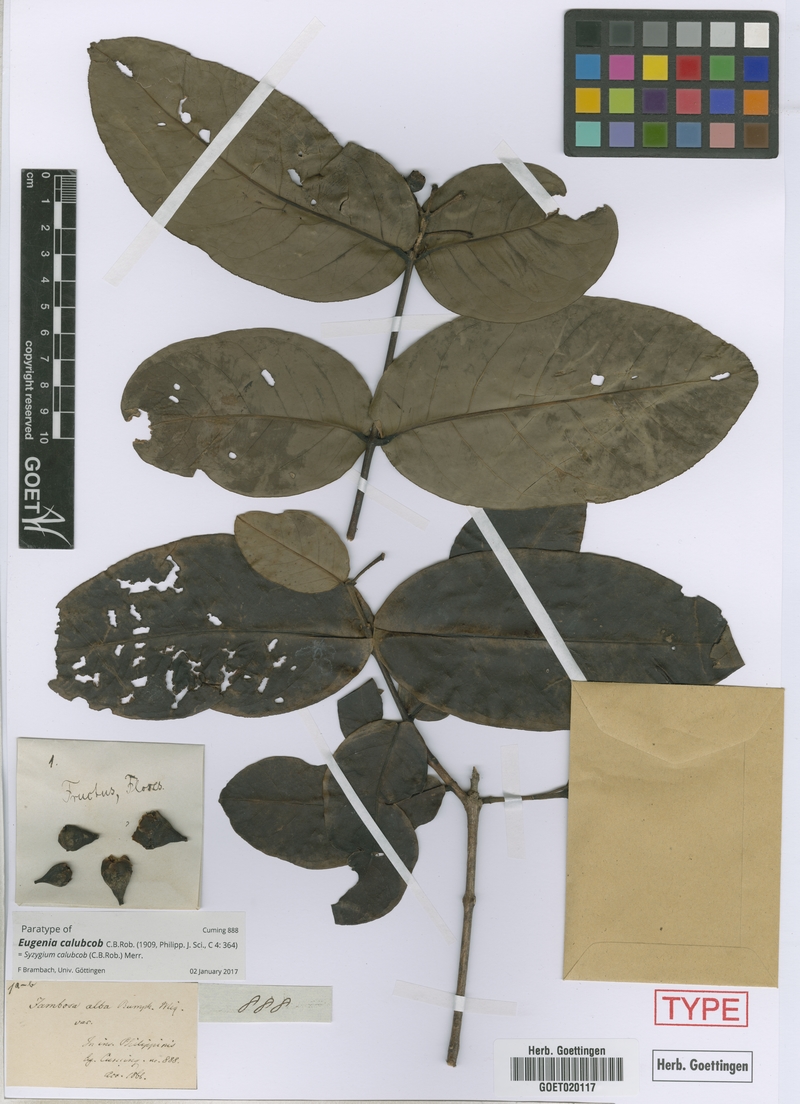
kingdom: Plantae
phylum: Tracheophyta
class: Magnoliopsida
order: Myrtales
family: Myrtaceae
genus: Syzygium
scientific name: Syzygium calubcob
